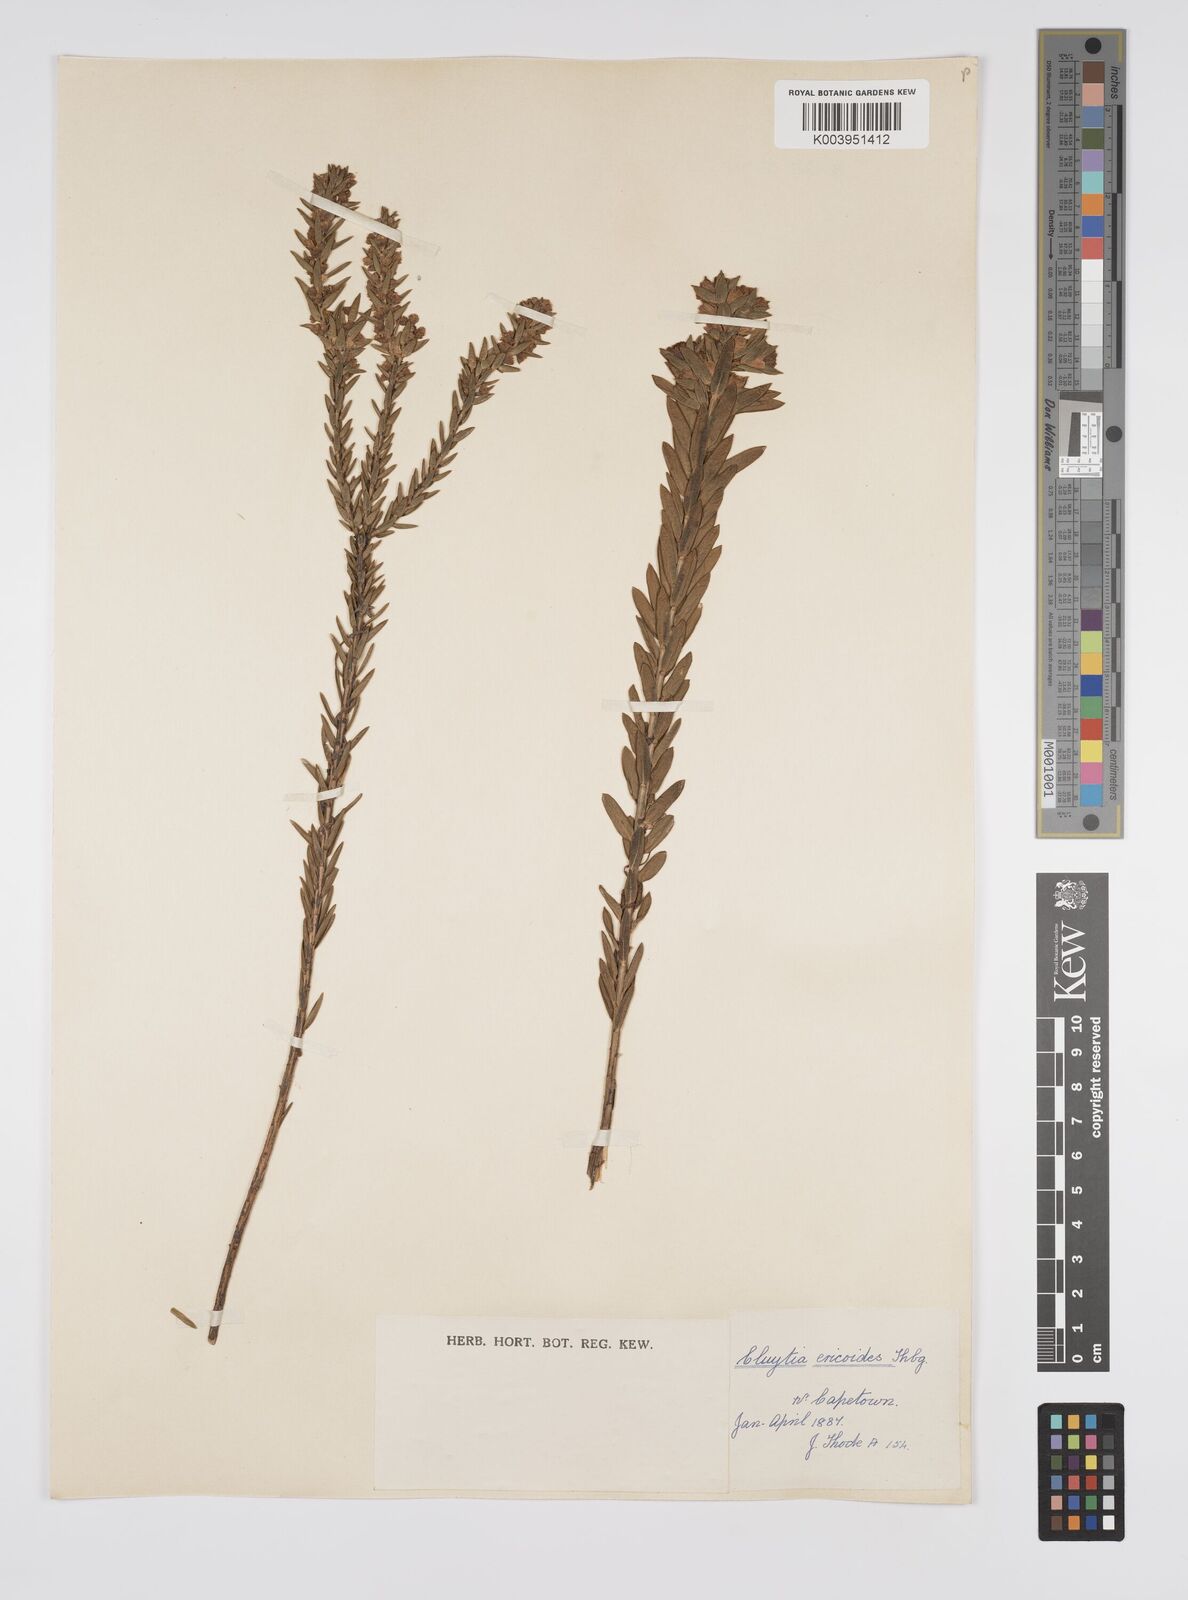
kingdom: Plantae
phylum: Tracheophyta
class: Magnoliopsida
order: Malpighiales
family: Peraceae
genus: Clutia
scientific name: Clutia
